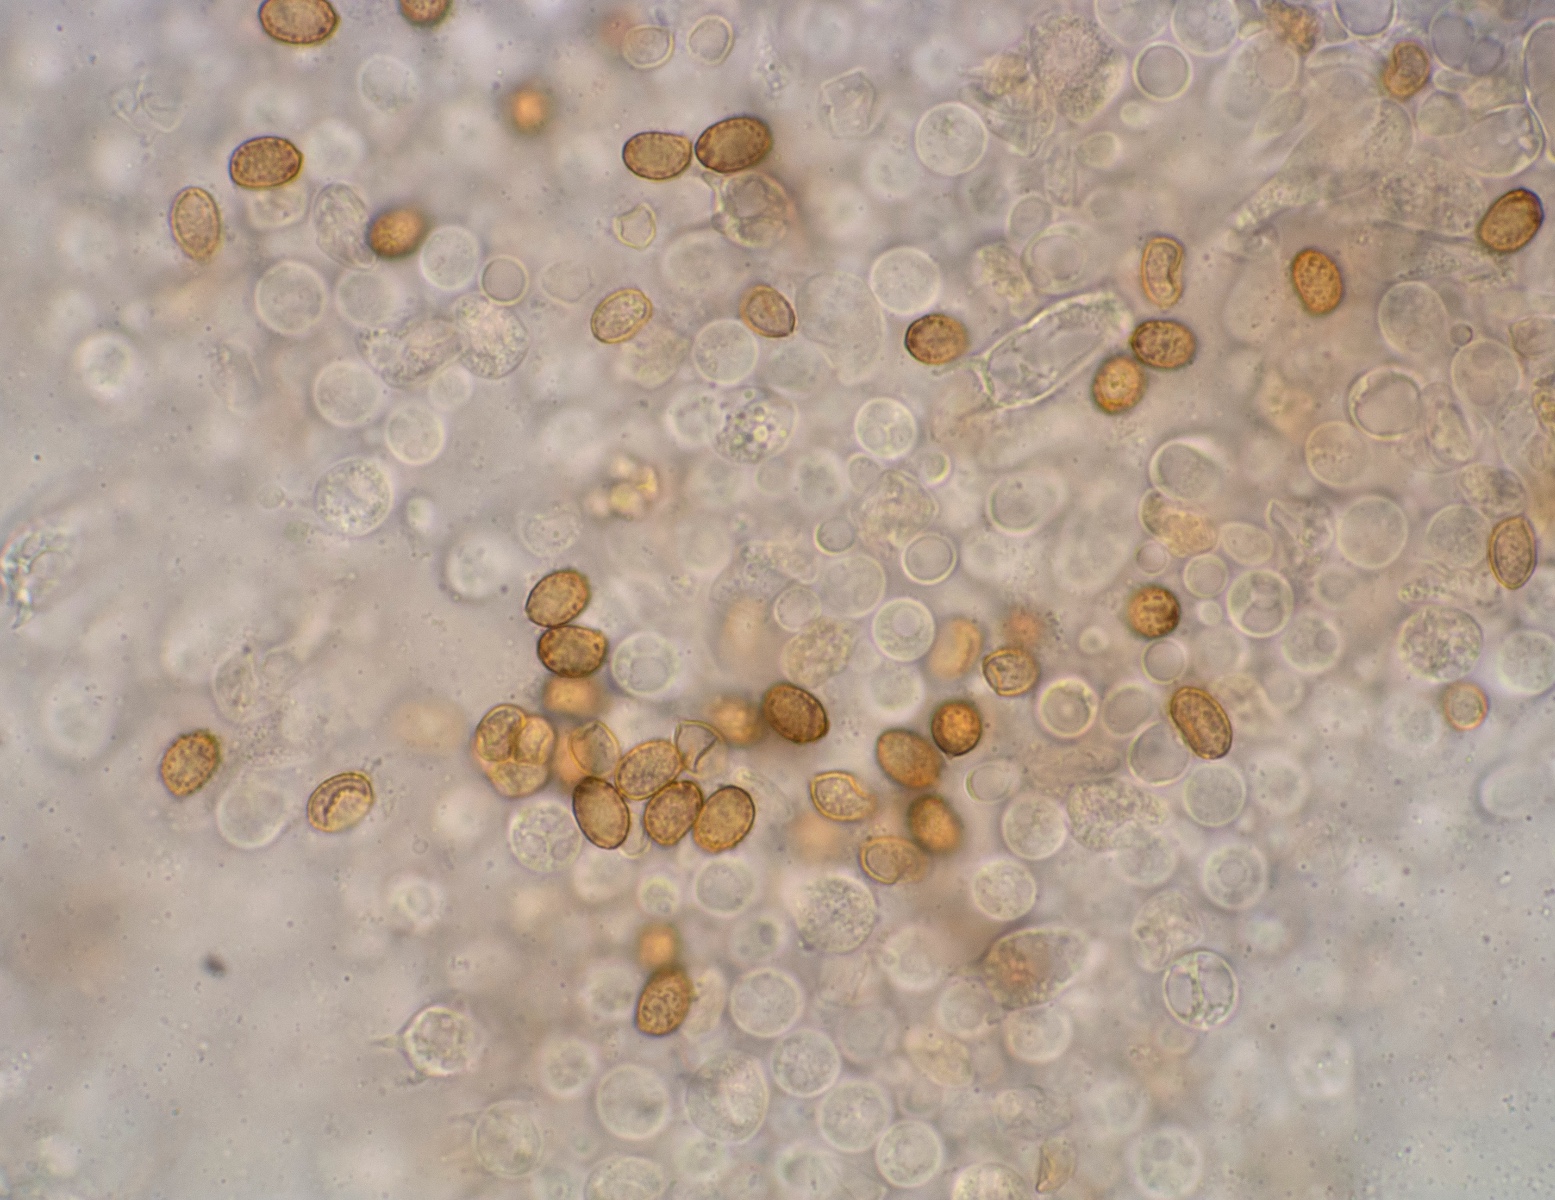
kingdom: Fungi
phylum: Basidiomycota
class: Agaricomycetes
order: Agaricales
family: Cortinariaceae
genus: Cortinarius
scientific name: Cortinarius comptulus
